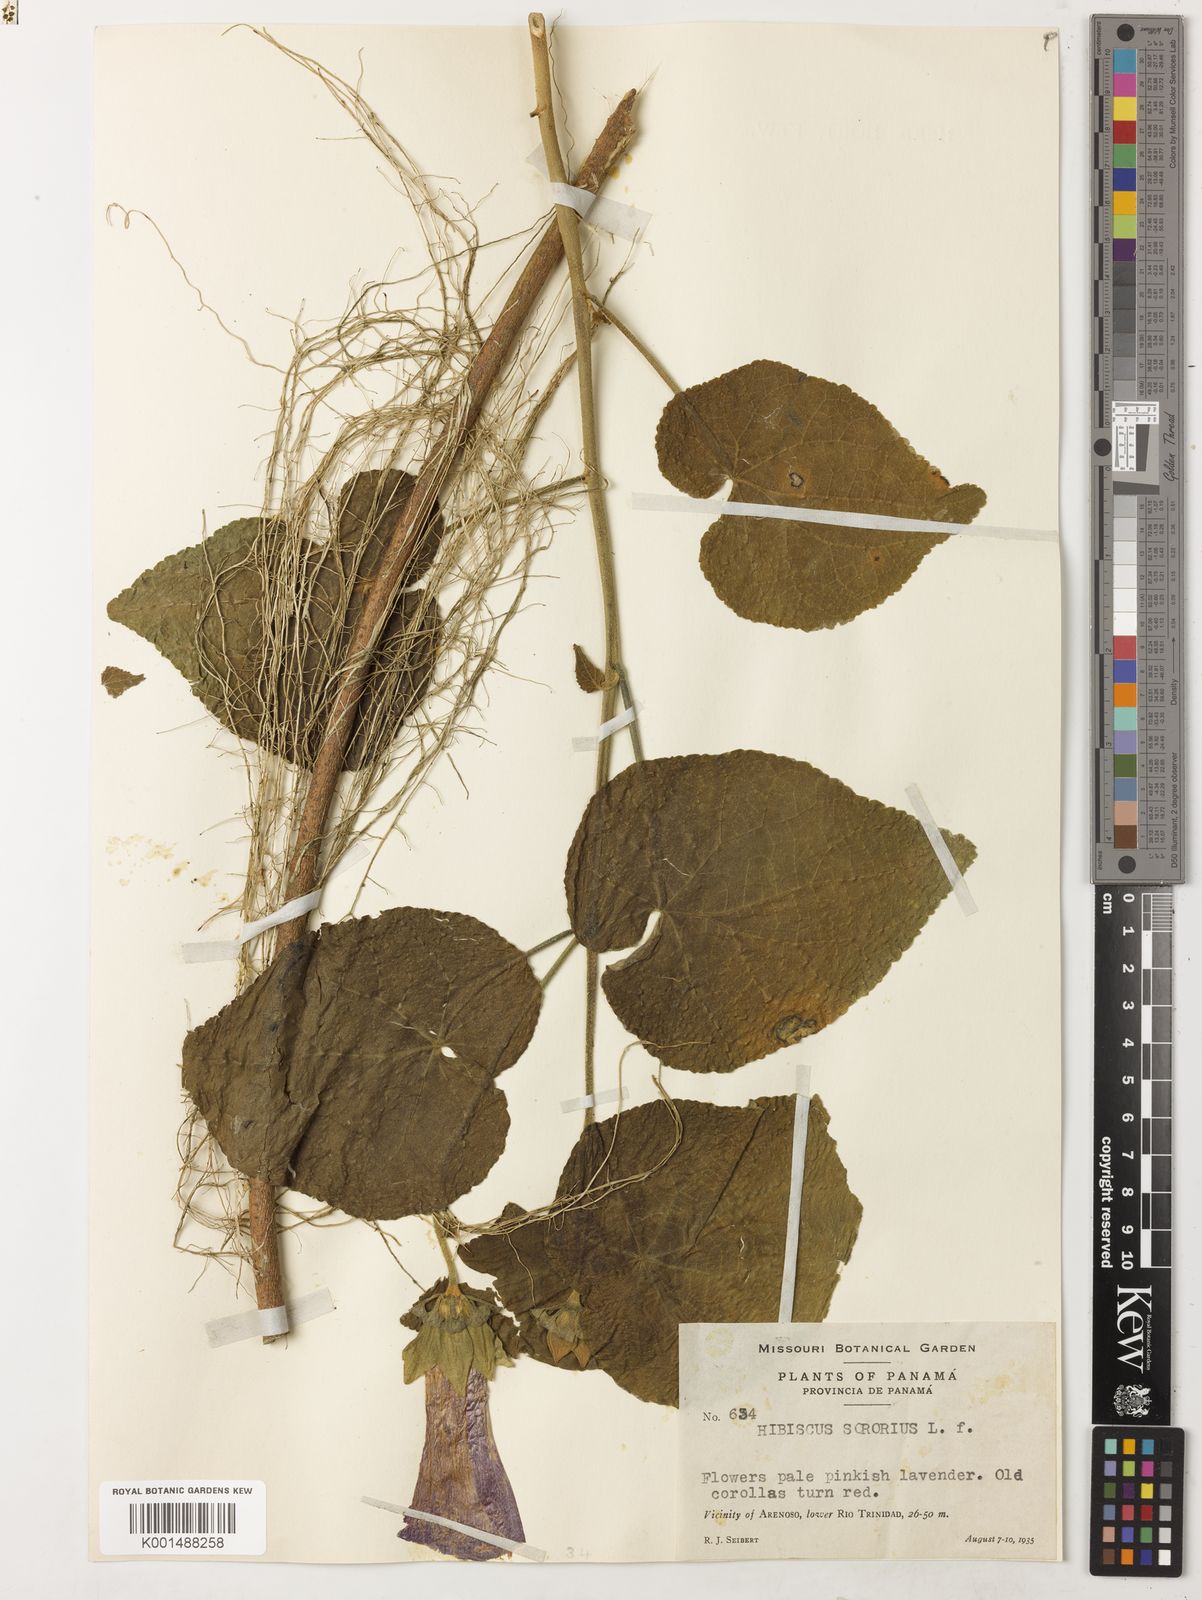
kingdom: Plantae
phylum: Tracheophyta
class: Magnoliopsida
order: Malvales
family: Malvaceae
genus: Hibiscus
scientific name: Hibiscus sororius
